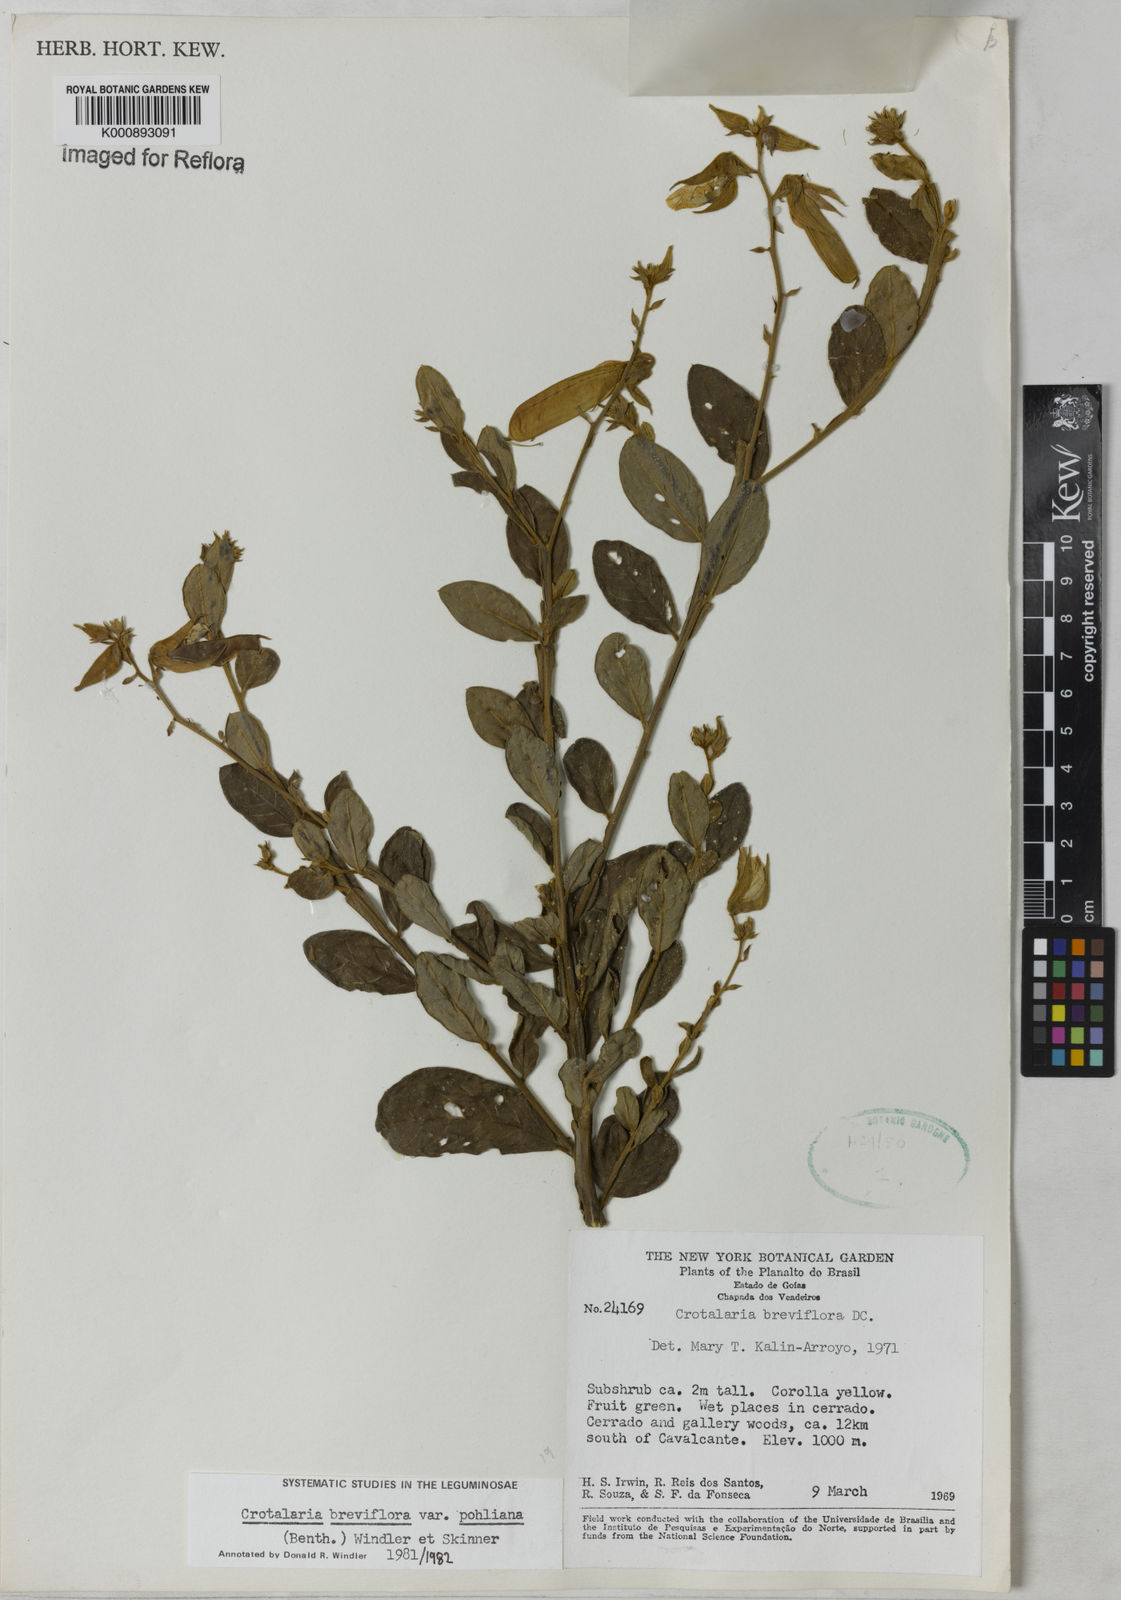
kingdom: Plantae
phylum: Tracheophyta
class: Magnoliopsida
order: Fabales
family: Fabaceae
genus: Crotalaria
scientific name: Crotalaria subdecurrens
